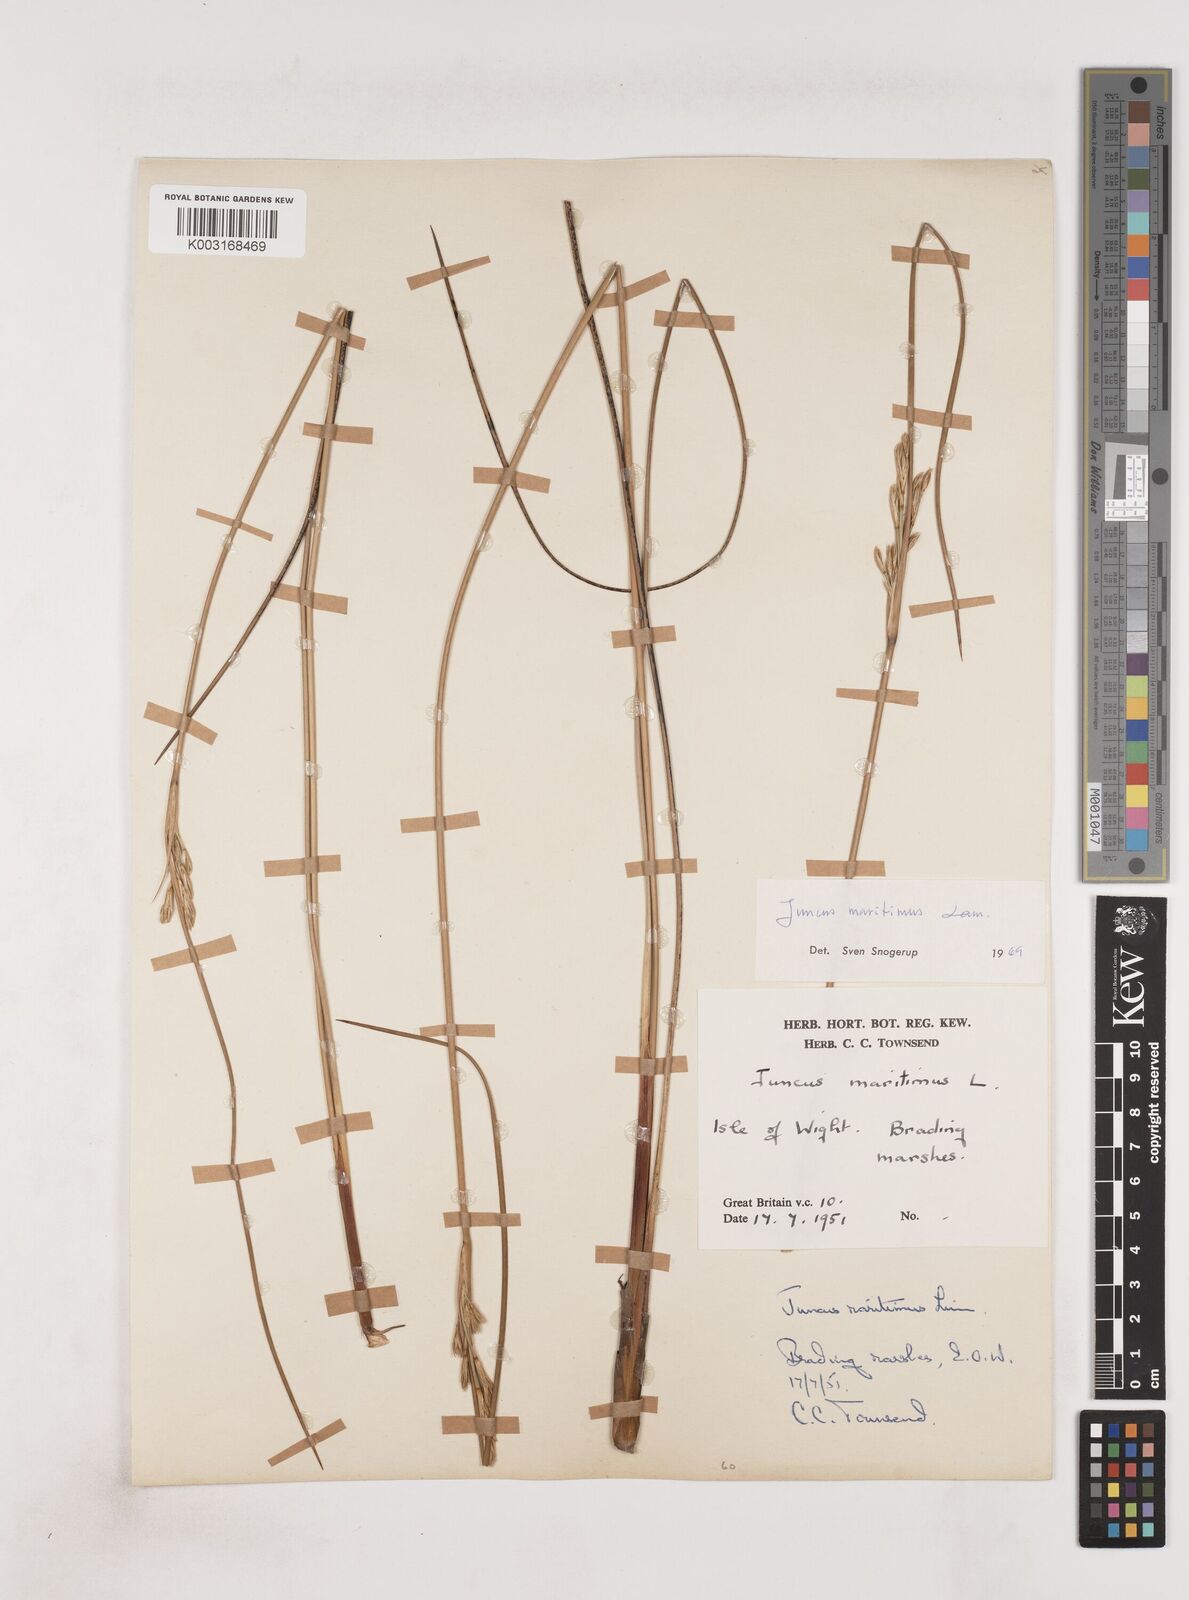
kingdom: Plantae
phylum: Tracheophyta
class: Liliopsida
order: Poales
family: Juncaceae
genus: Juncus
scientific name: Juncus maritimus
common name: Sea rush
